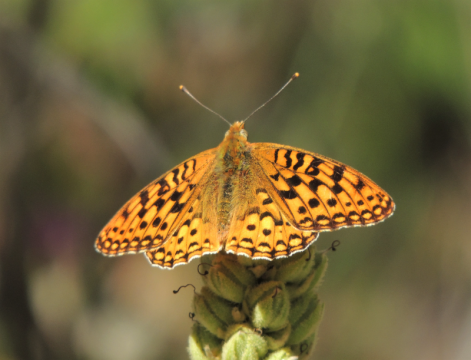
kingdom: Animalia
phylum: Arthropoda
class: Insecta
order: Lepidoptera
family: Nymphalidae
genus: Speyeria
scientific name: Speyeria coronis
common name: Coronis Fritillary
